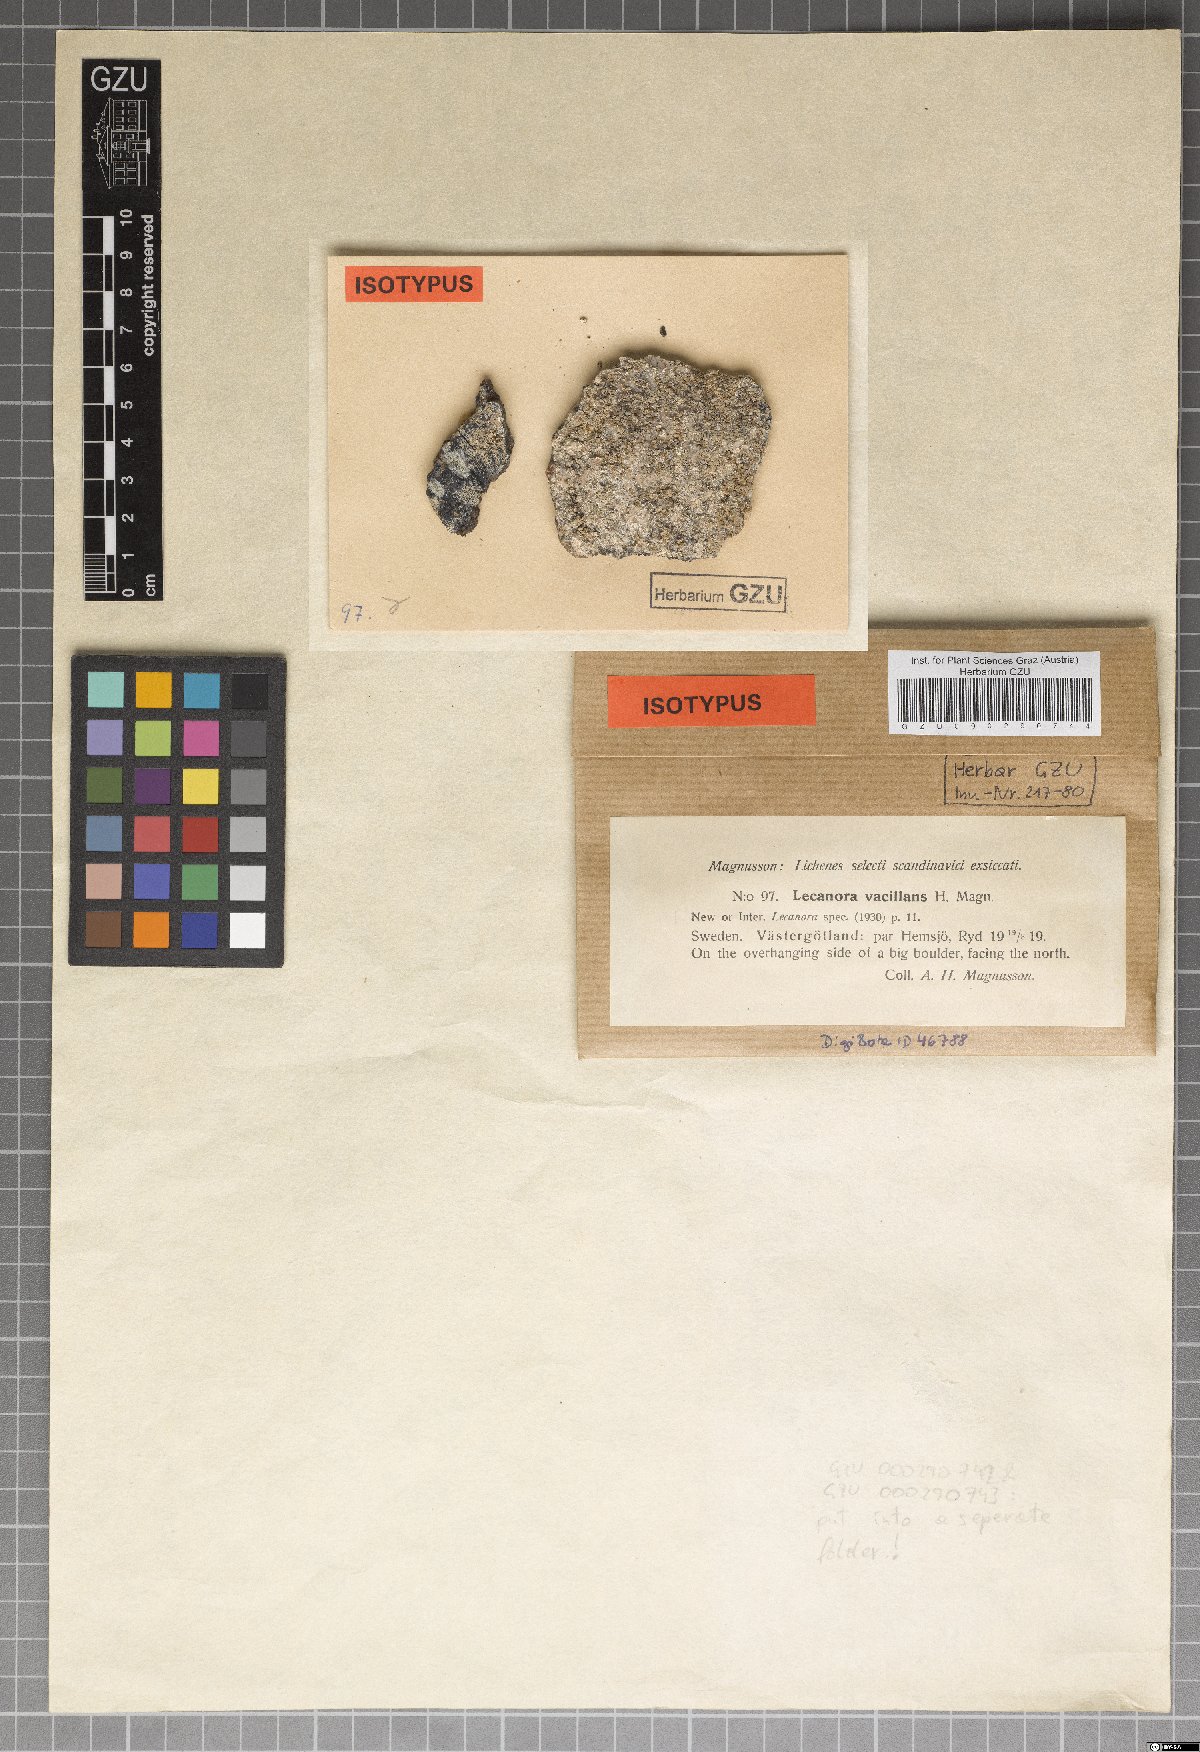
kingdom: Fungi
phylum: Ascomycota
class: Lecanoromycetes
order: Lecanorales
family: Lecanoraceae
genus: Lecanora
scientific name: Lecanora vacillans
